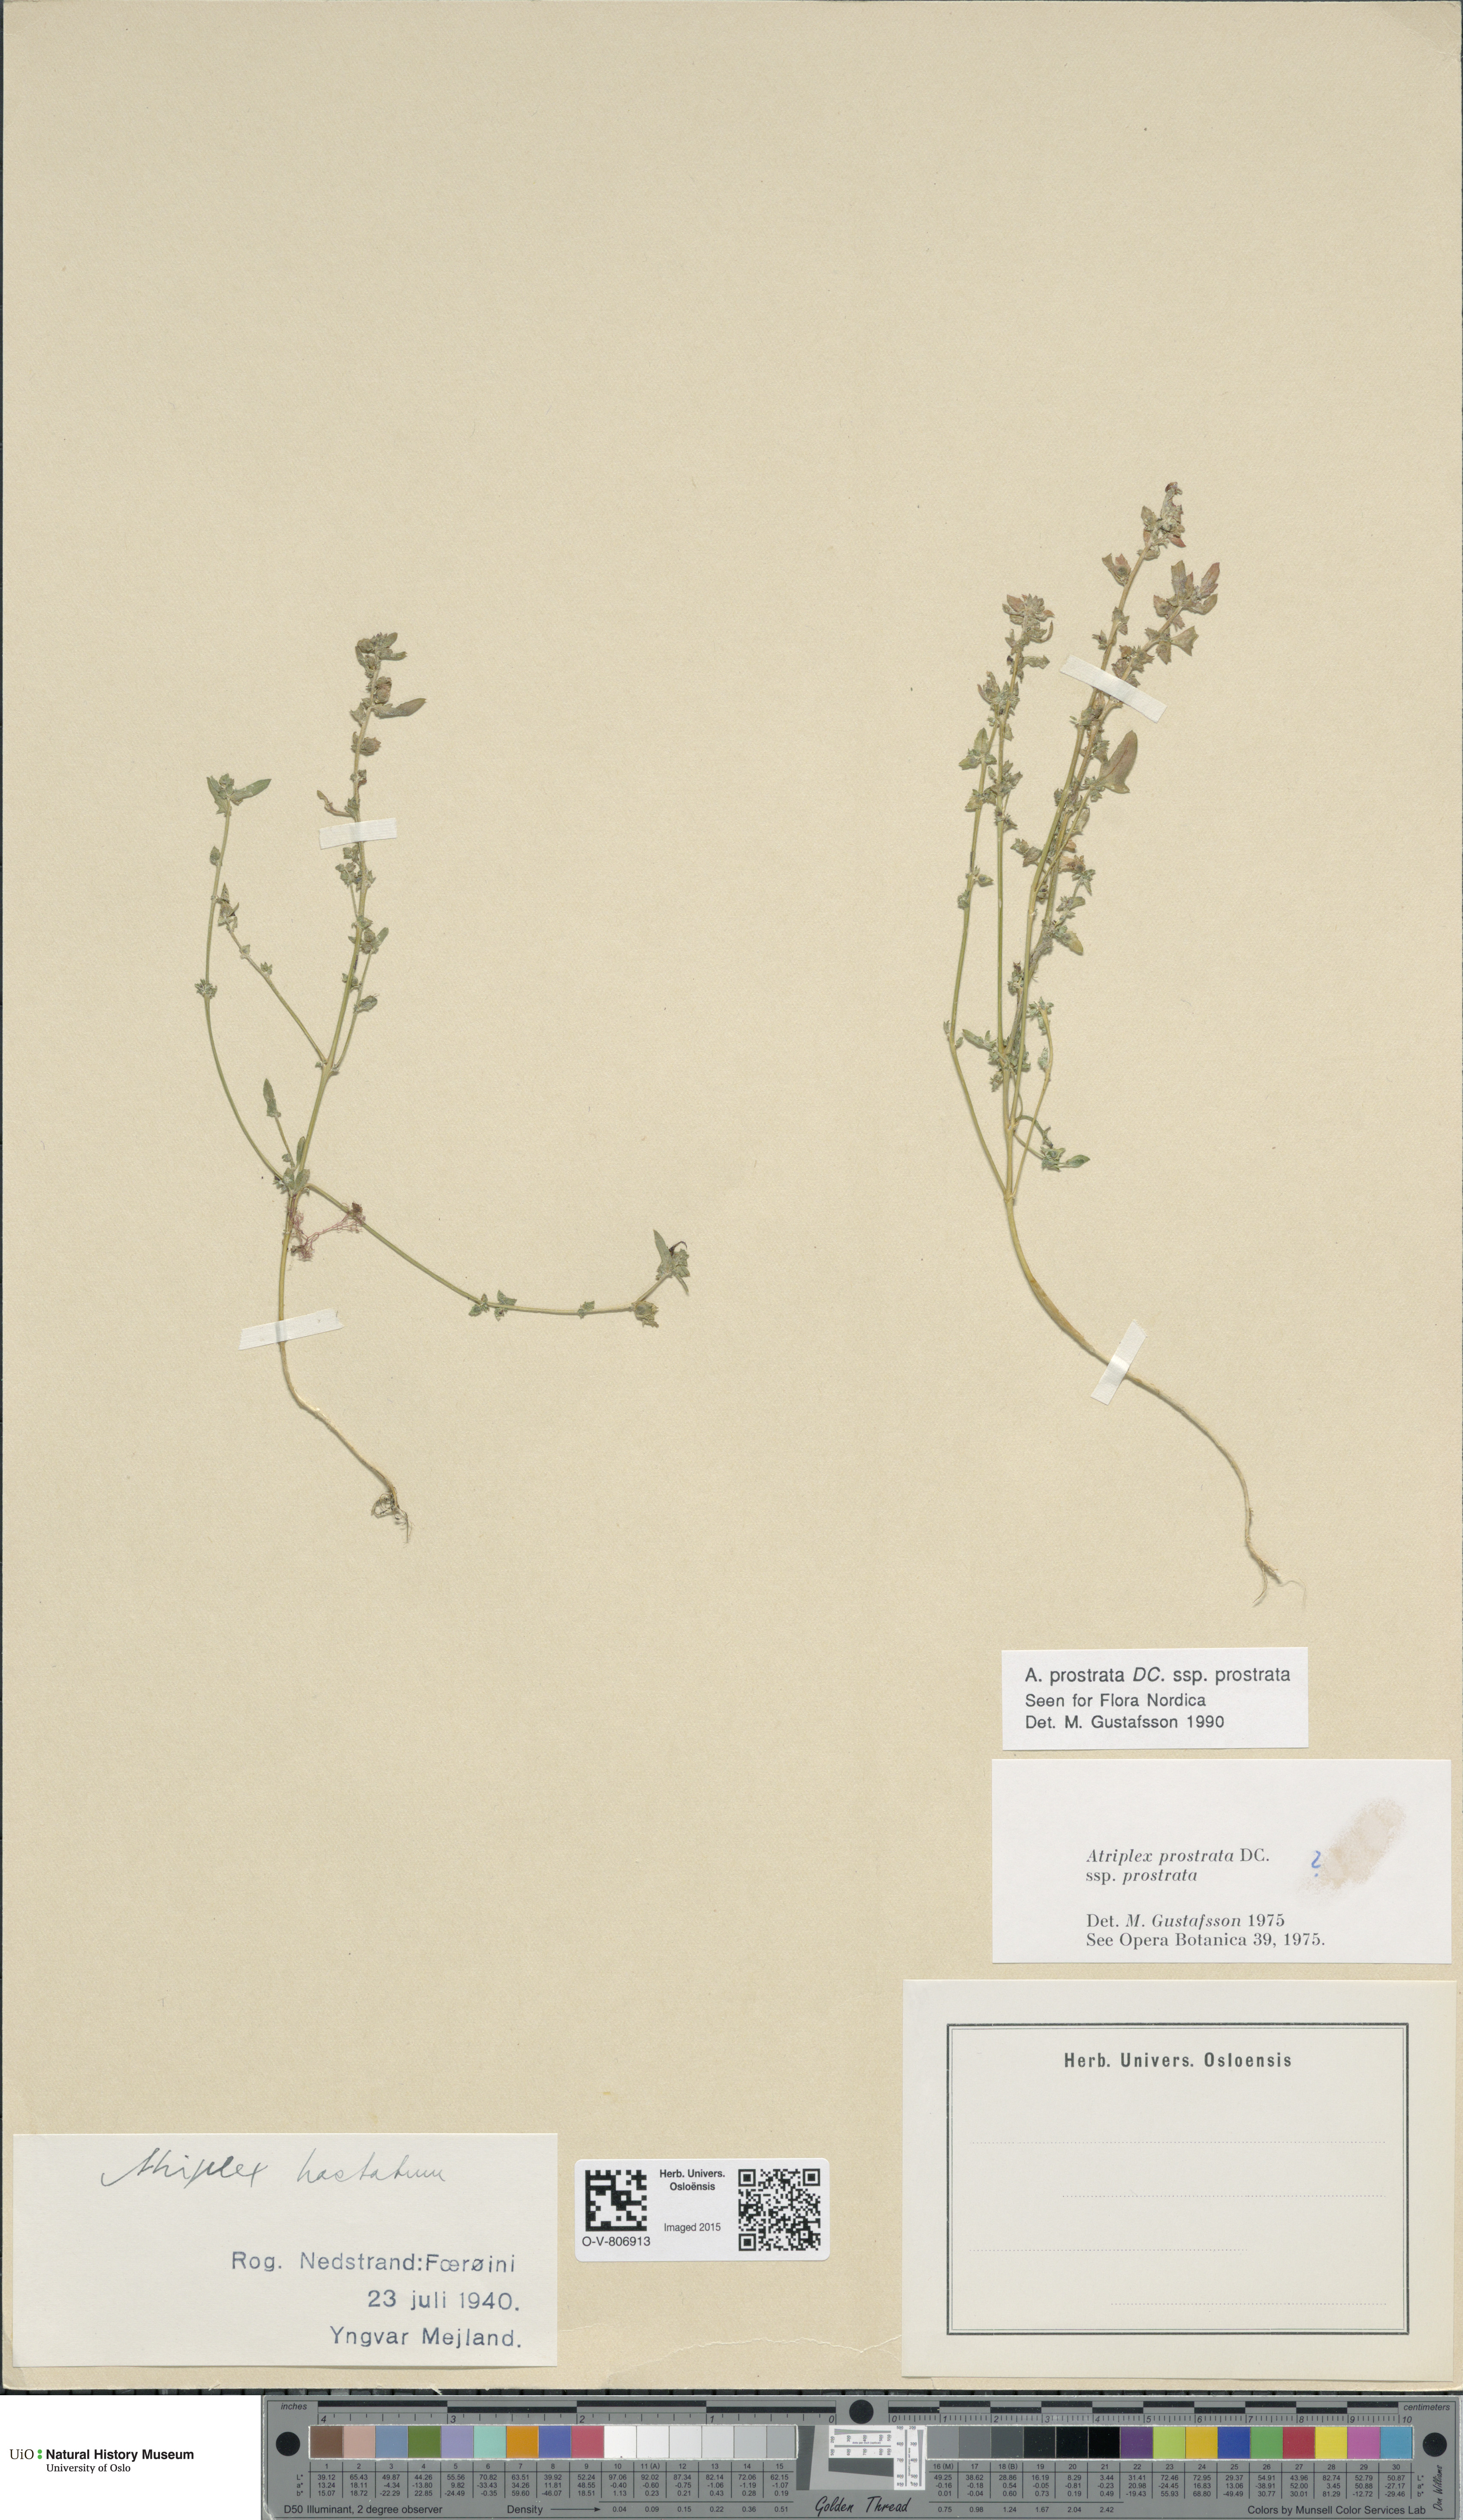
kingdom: Plantae
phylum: Tracheophyta
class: Magnoliopsida
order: Caryophyllales
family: Amaranthaceae
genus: Atriplex
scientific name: Atriplex prostrata
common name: Spear-leaved orache
